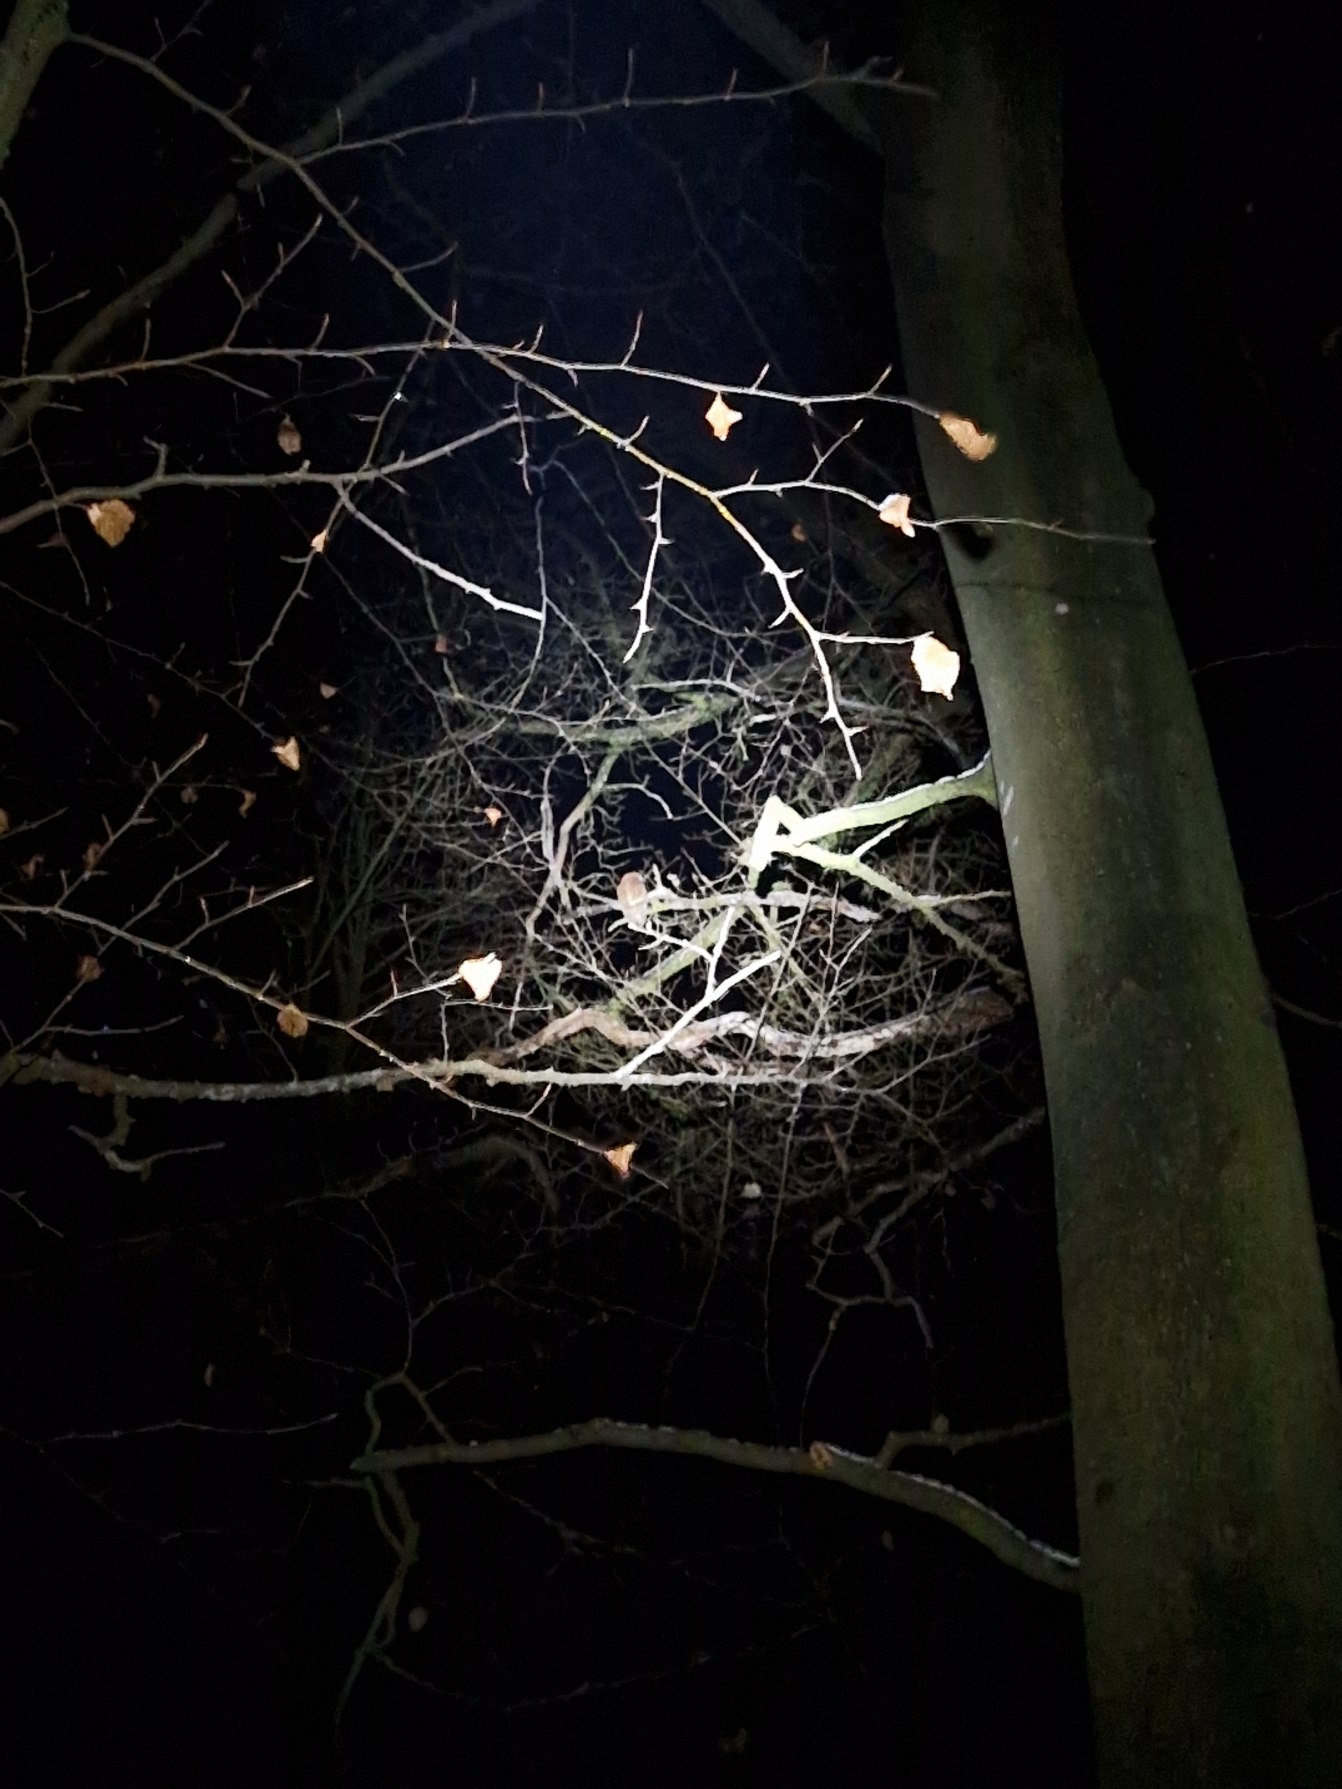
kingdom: Animalia
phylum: Chordata
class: Aves
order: Strigiformes
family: Strigidae
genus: Strix
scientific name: Strix aluco
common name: Natugle
